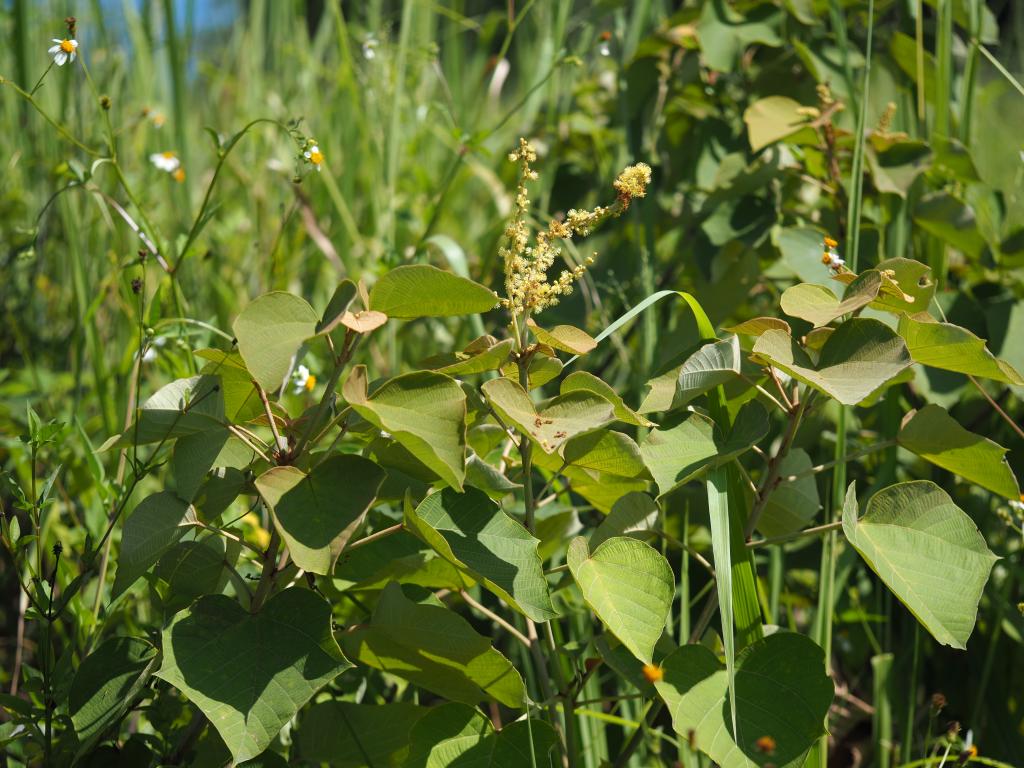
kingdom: Plantae
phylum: Tracheophyta
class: Magnoliopsida
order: Malpighiales
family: Euphorbiaceae
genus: Mallotus
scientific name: Mallotus japonicus
